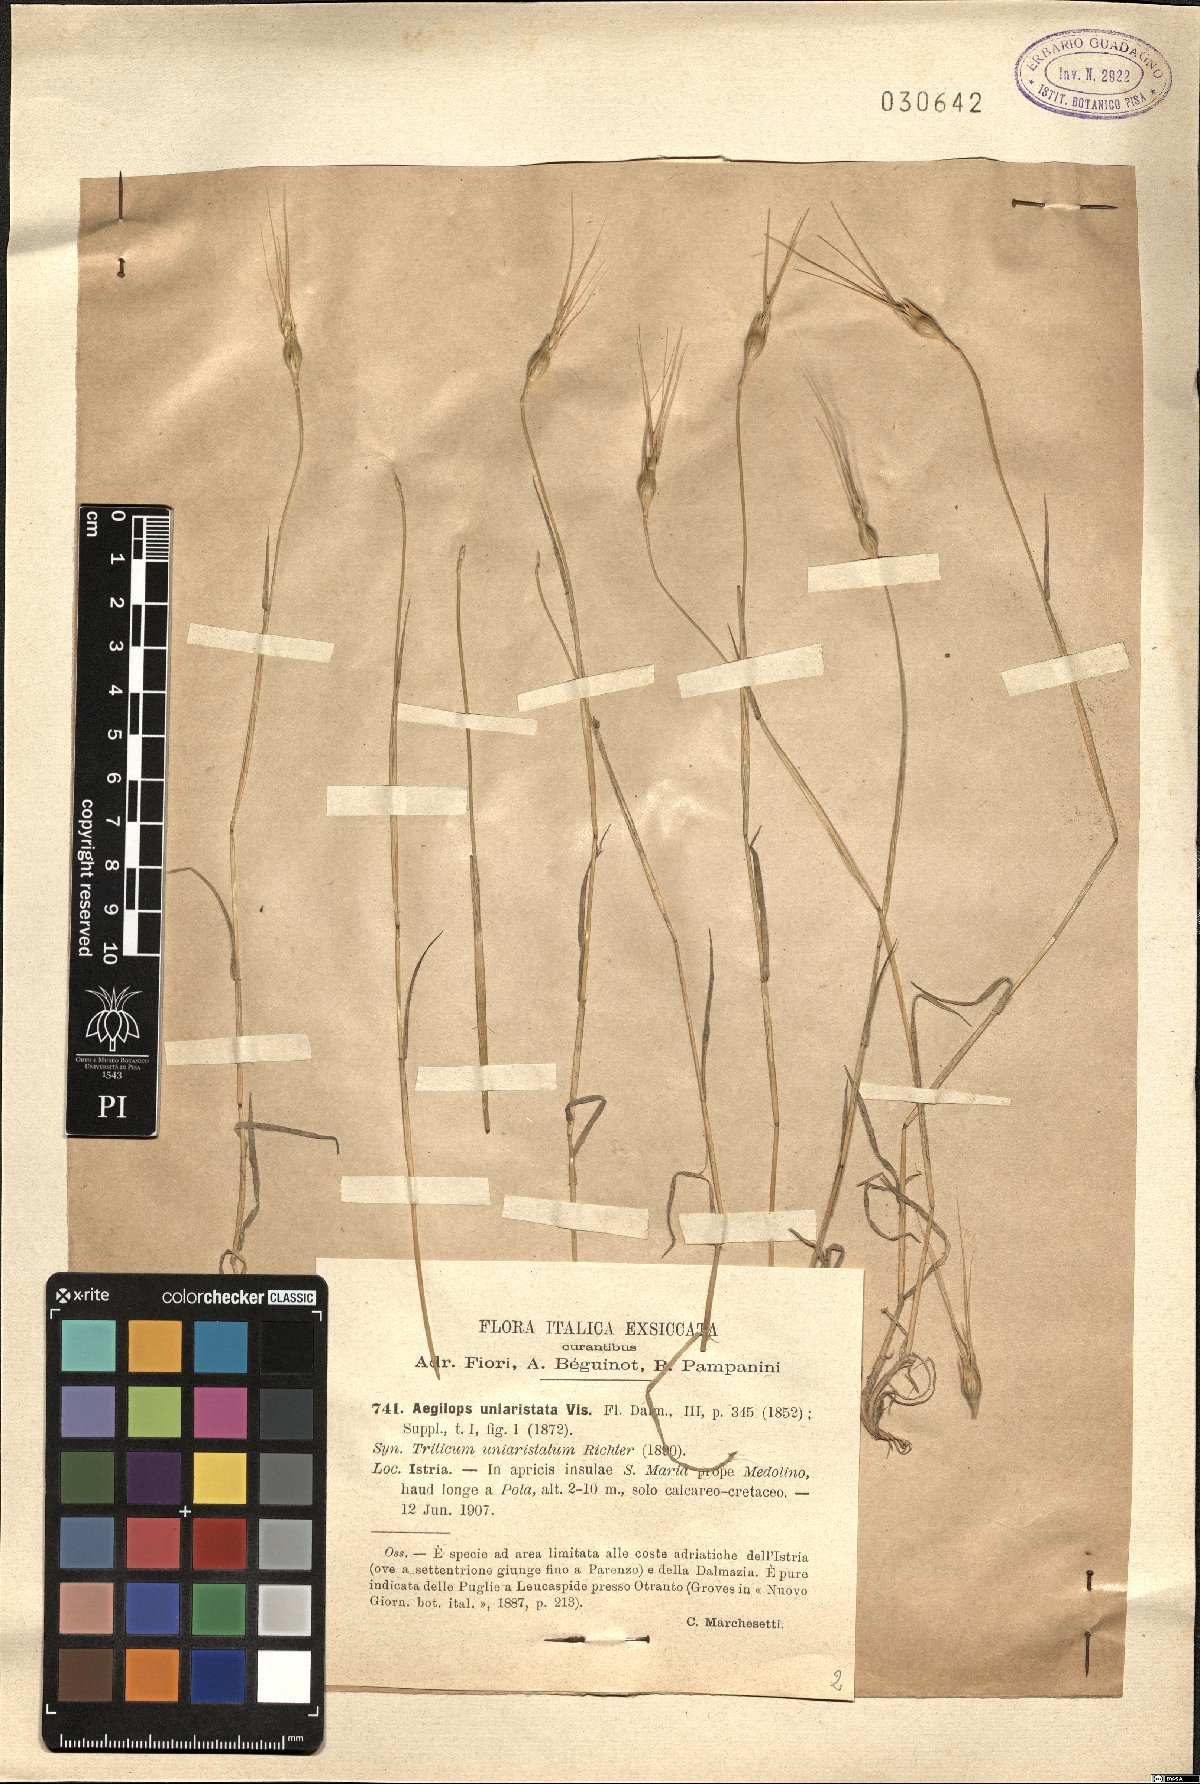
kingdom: Plantae
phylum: Tracheophyta
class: Liliopsida
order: Poales
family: Poaceae
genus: Aegilops
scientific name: Aegilops uniaristata
